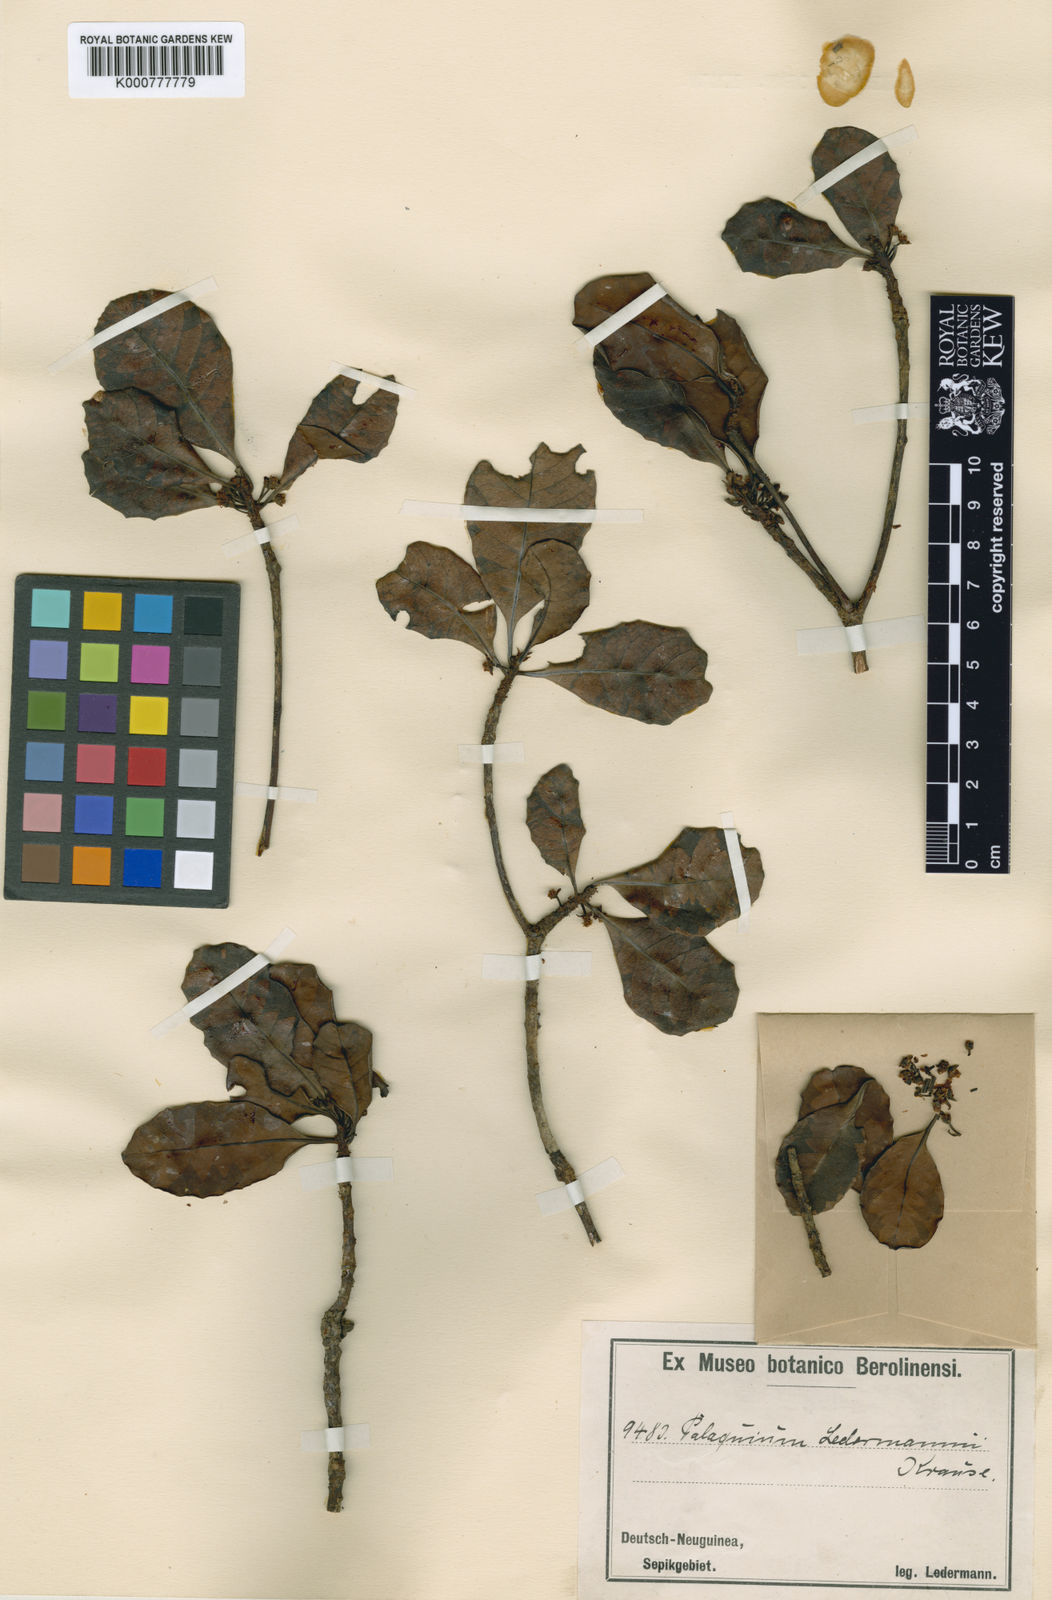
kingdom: Plantae
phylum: Tracheophyta
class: Magnoliopsida
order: Ericales
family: Sapotaceae
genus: Palaquium
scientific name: Palaquium ridleyi
